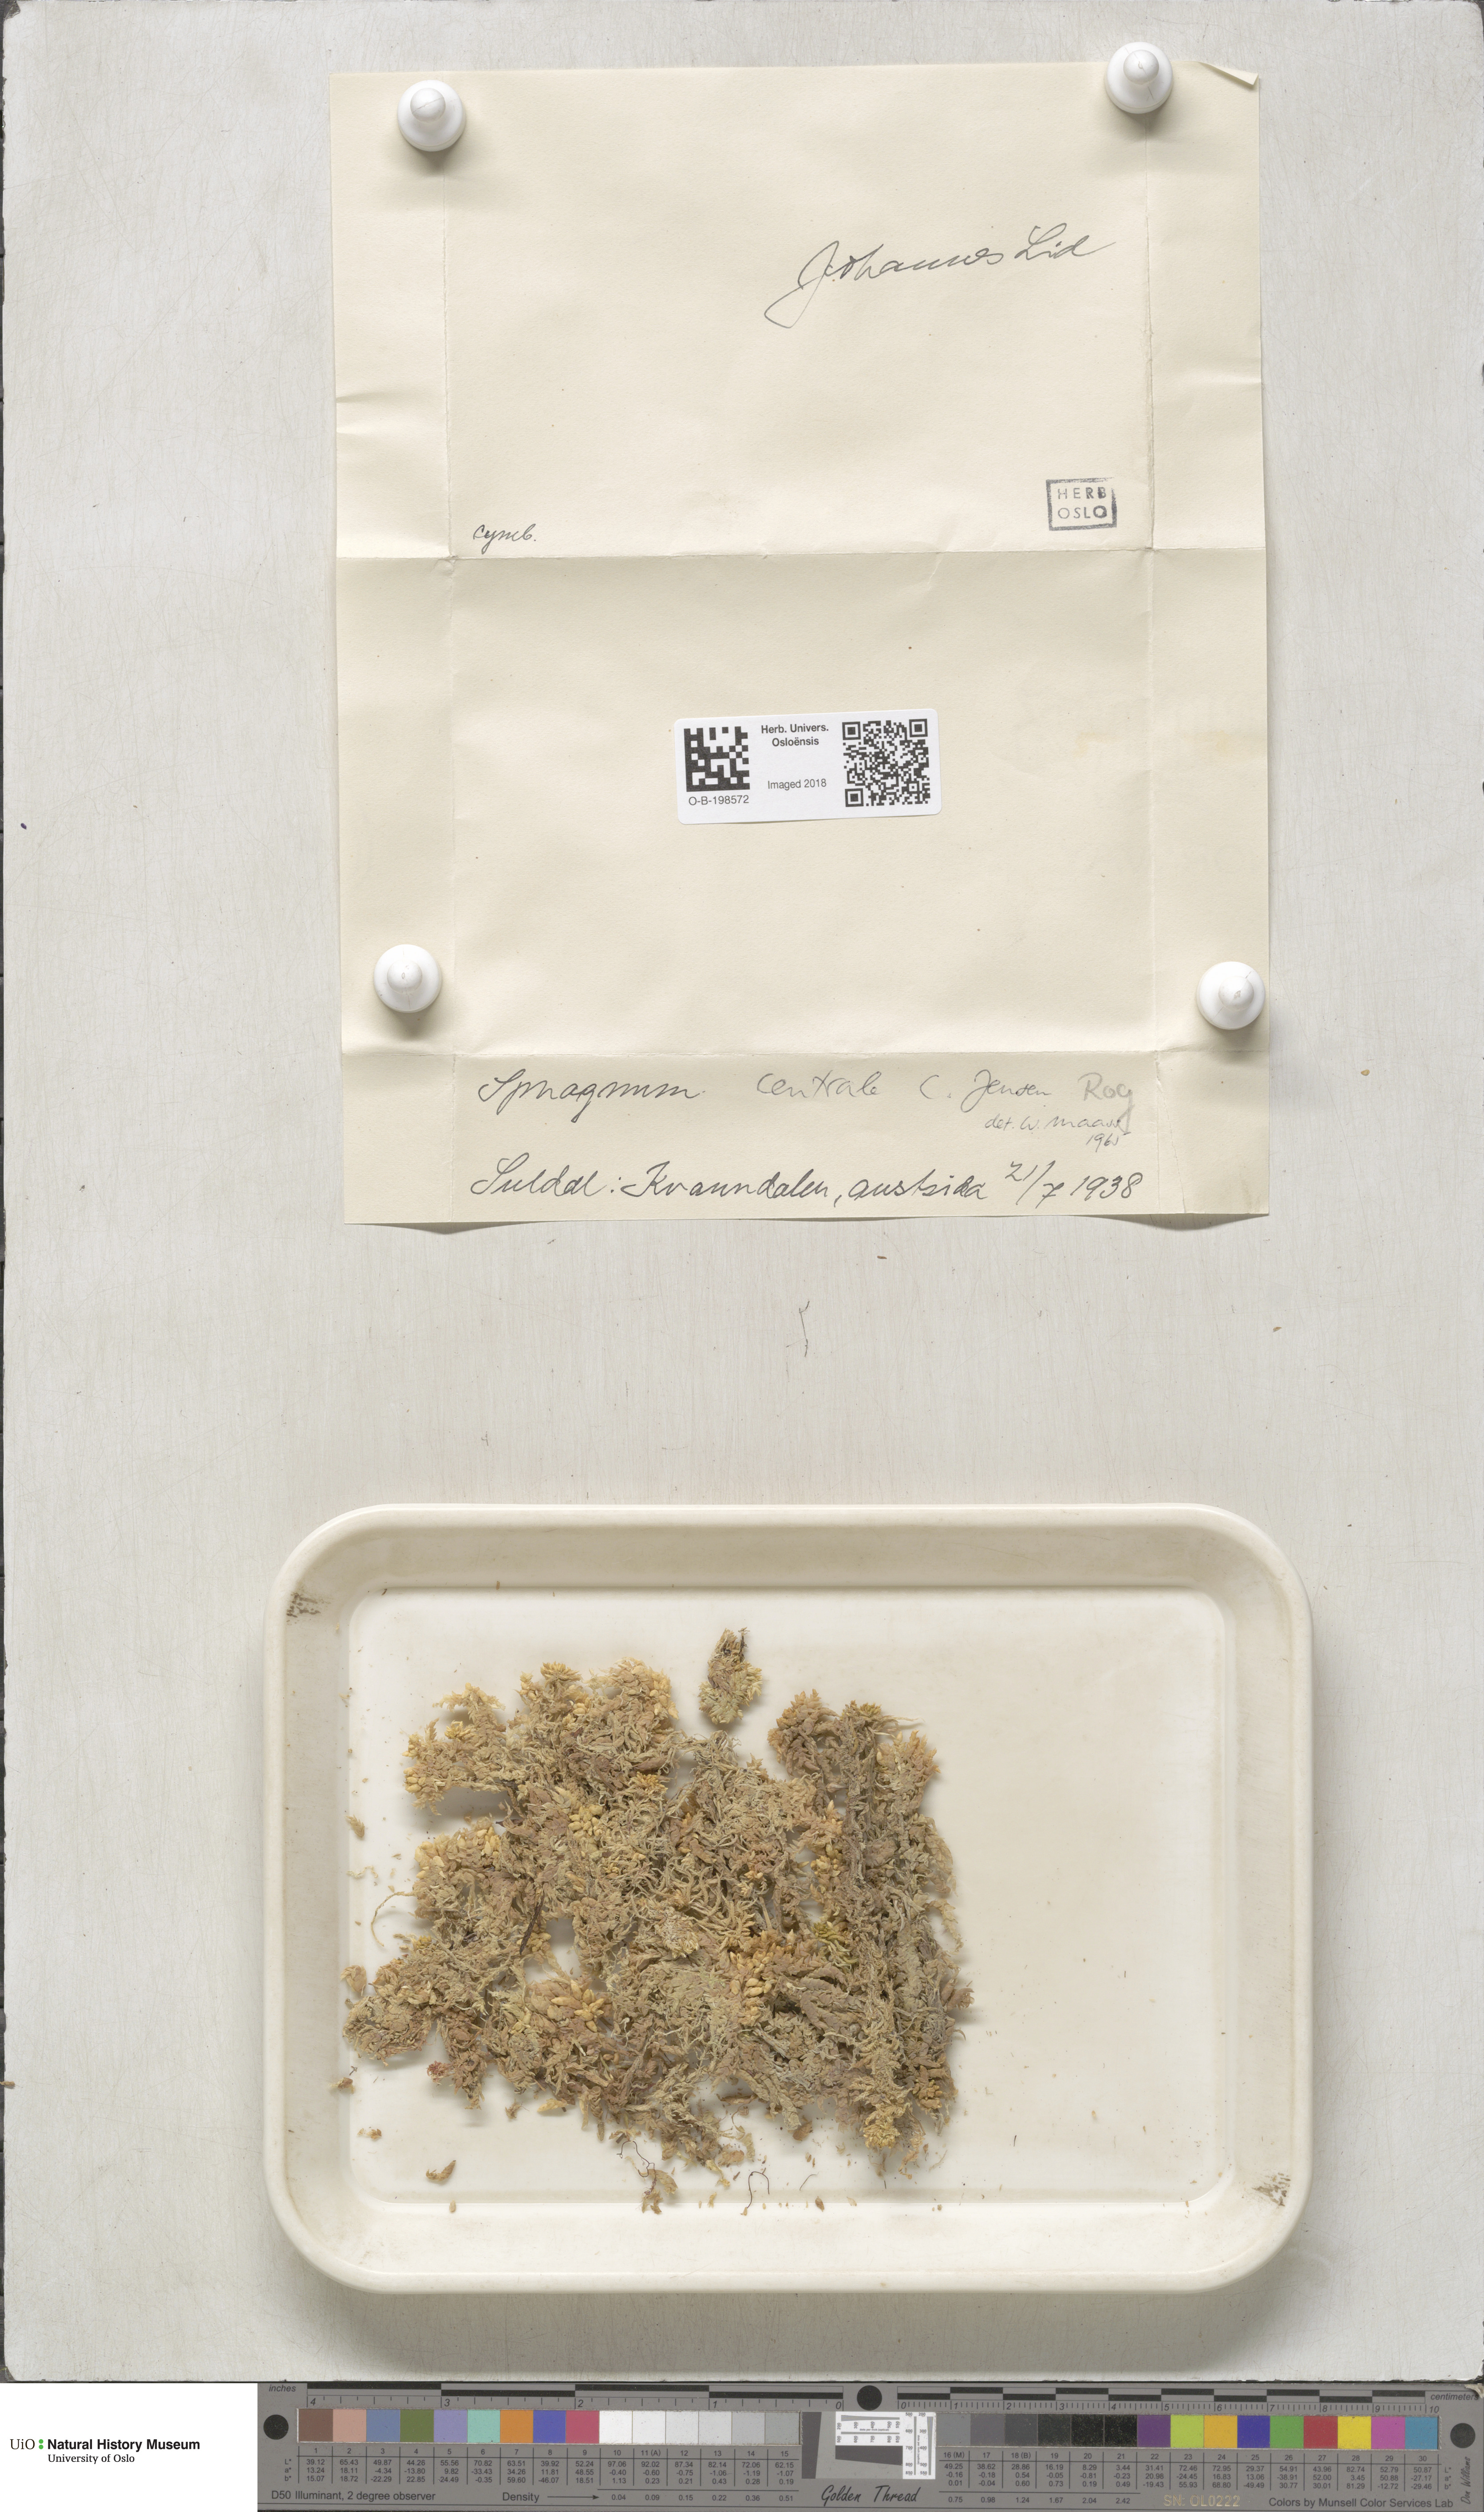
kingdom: Plantae
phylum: Bryophyta
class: Sphagnopsida
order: Sphagnales
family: Sphagnaceae
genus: Sphagnum
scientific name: Sphagnum centrale
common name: Central peat moss
